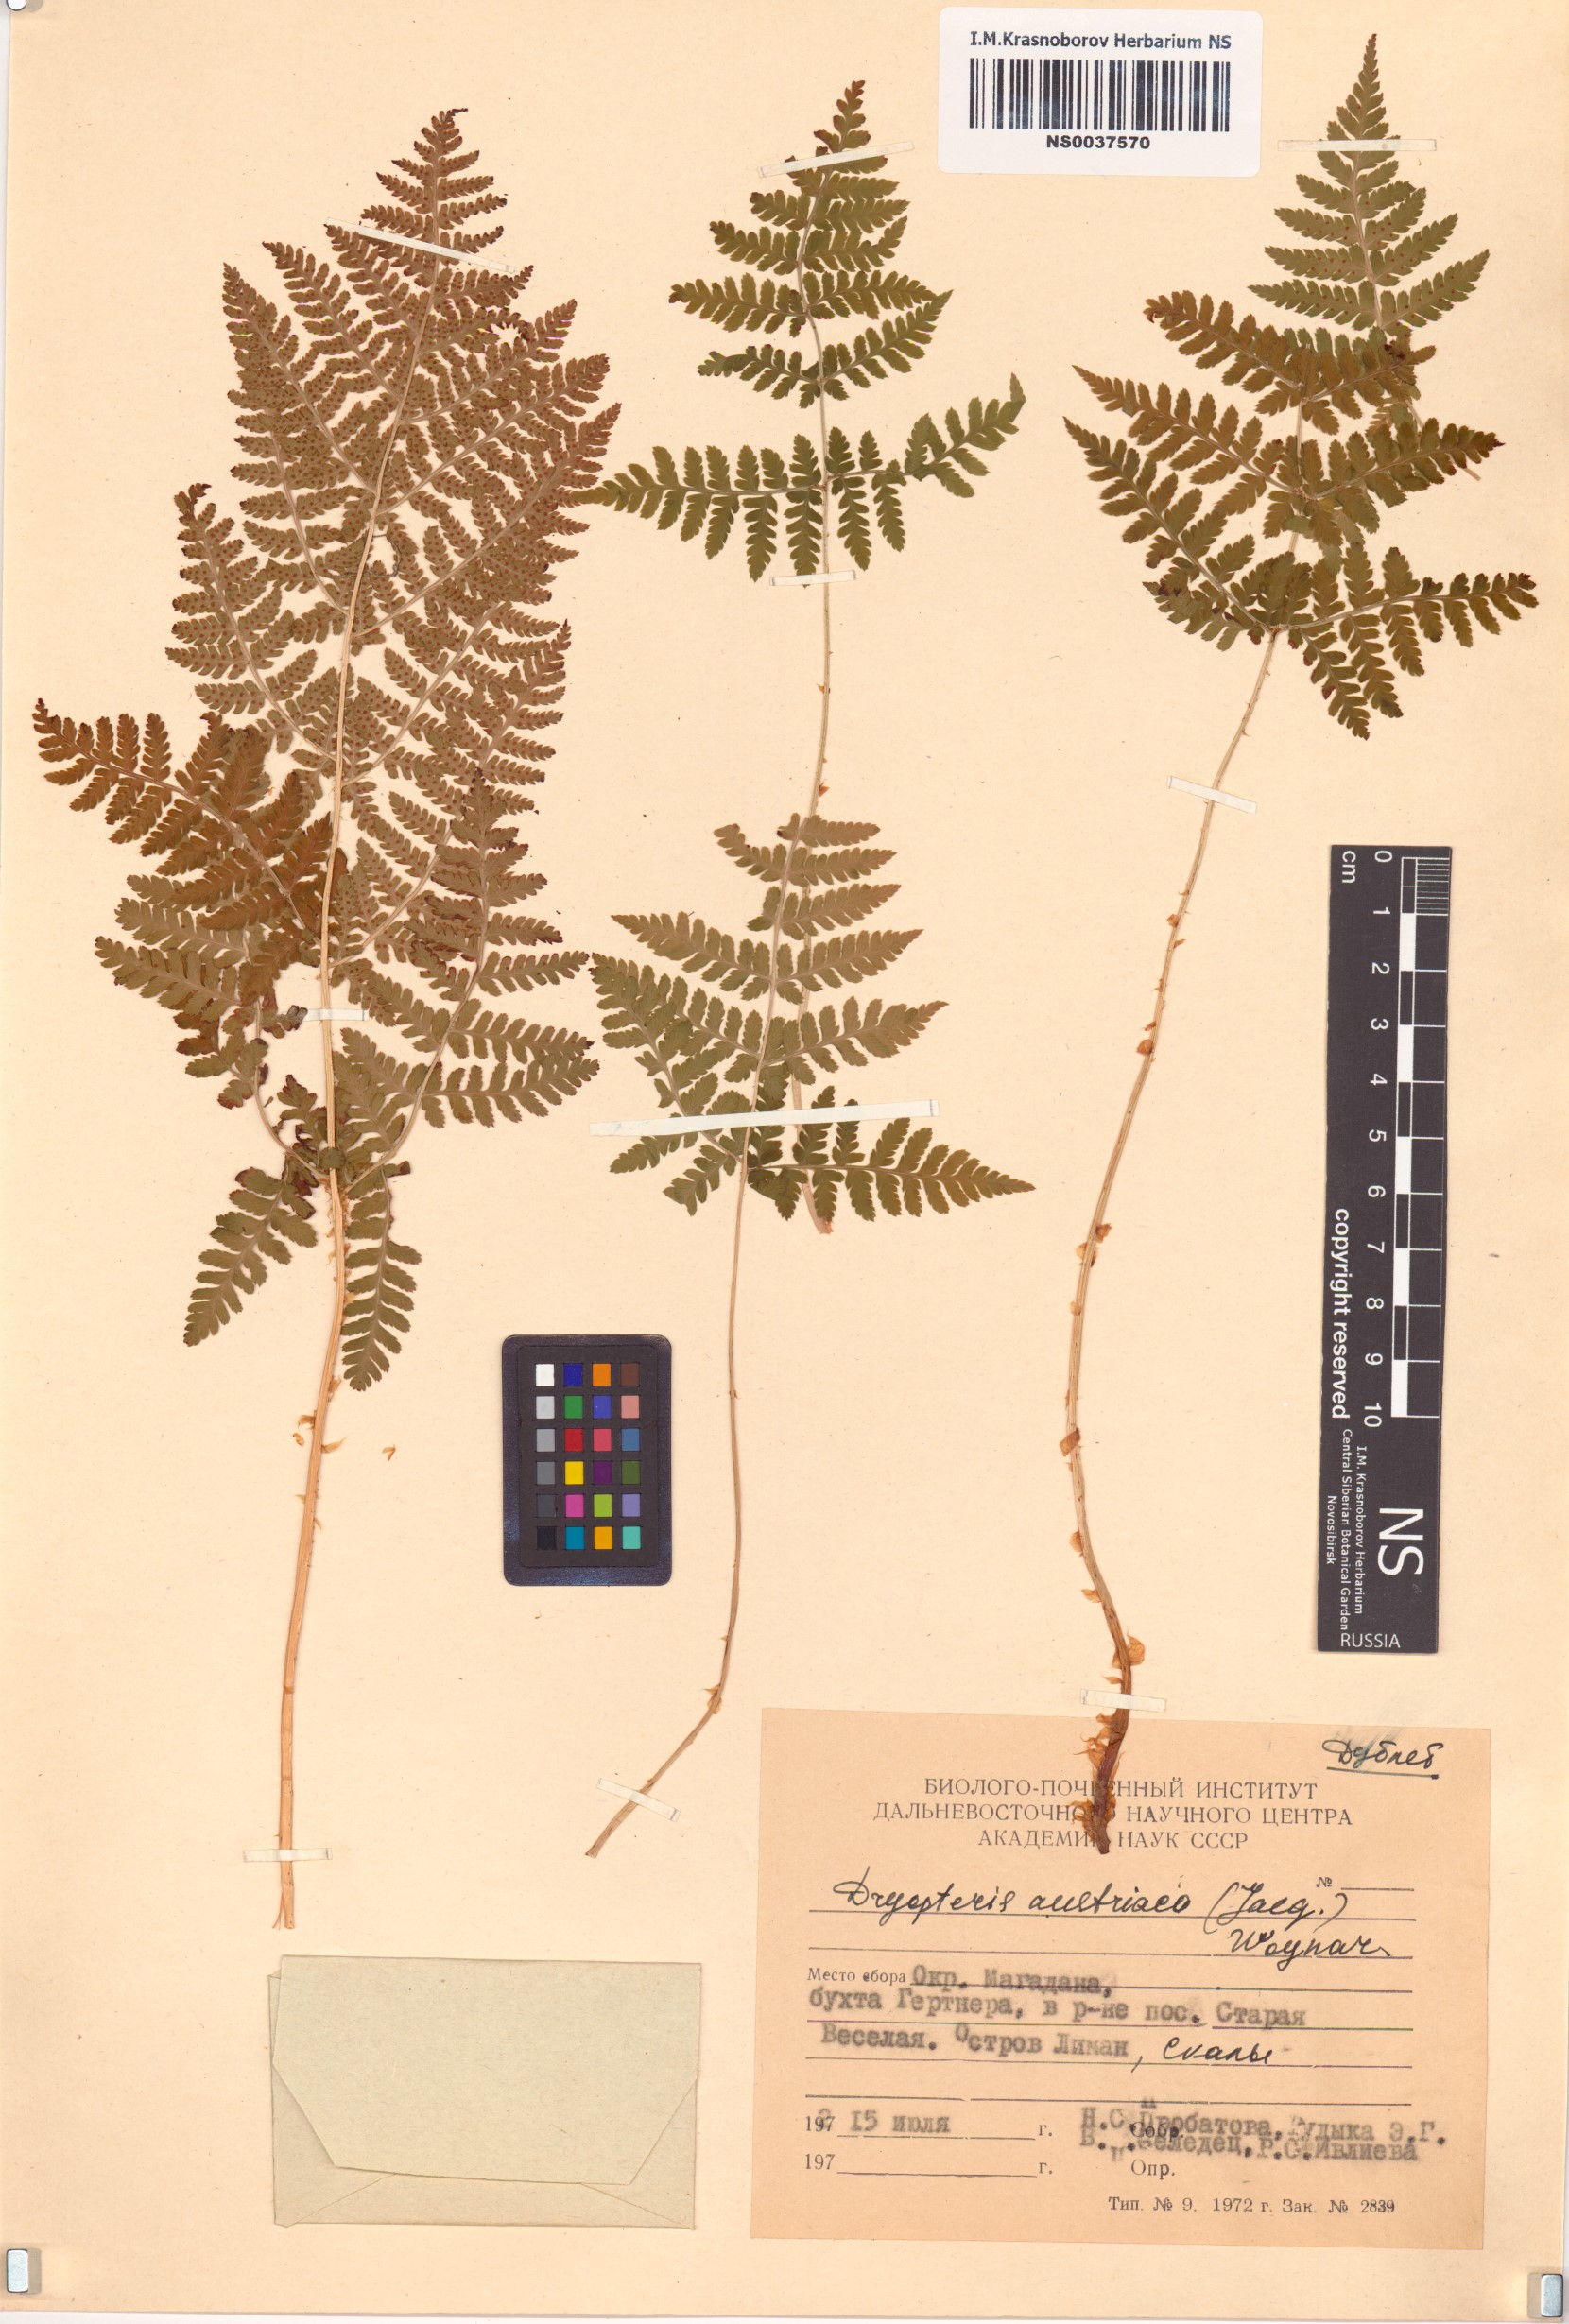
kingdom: Plantae
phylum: Tracheophyta
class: Polypodiopsida
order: Polypodiales
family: Dryopteridaceae
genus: Dryopteris
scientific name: Dryopteris dilatata
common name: Broad buckler-fern
